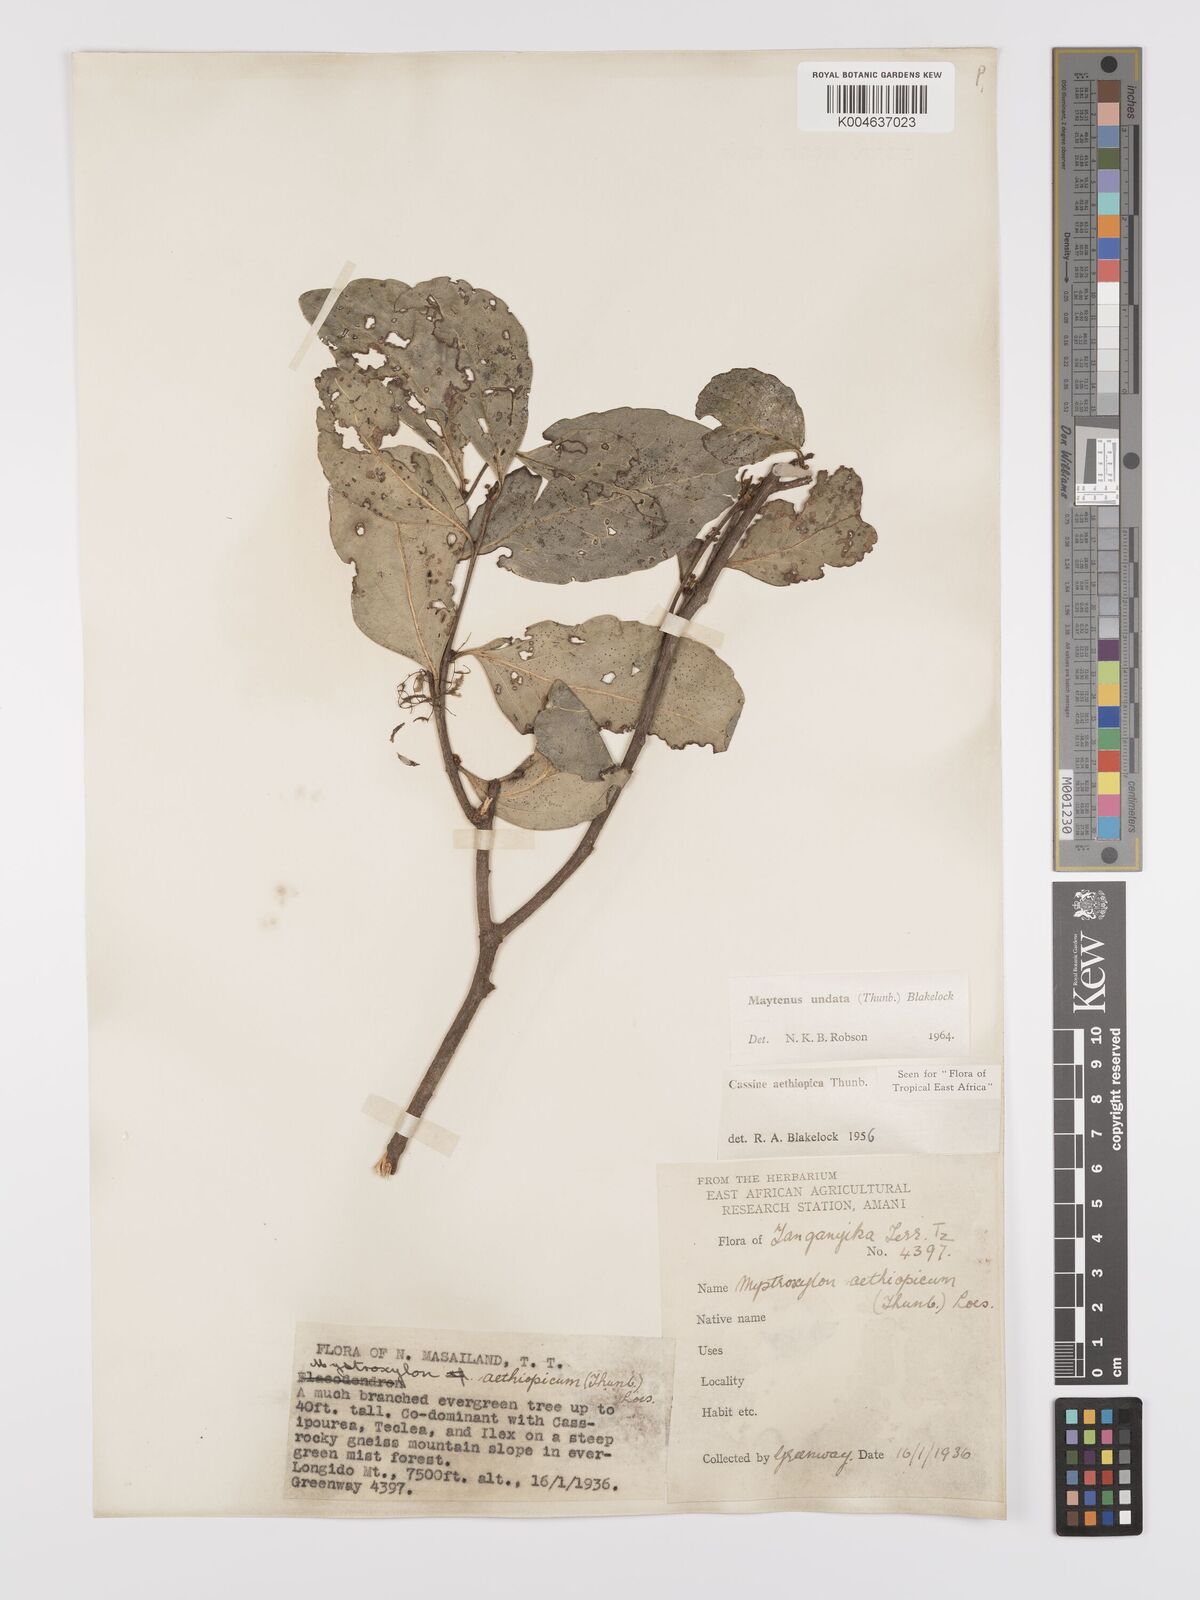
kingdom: Plantae
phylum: Tracheophyta
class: Magnoliopsida
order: Celastrales
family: Celastraceae
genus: Gymnosporia
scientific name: Gymnosporia undata
